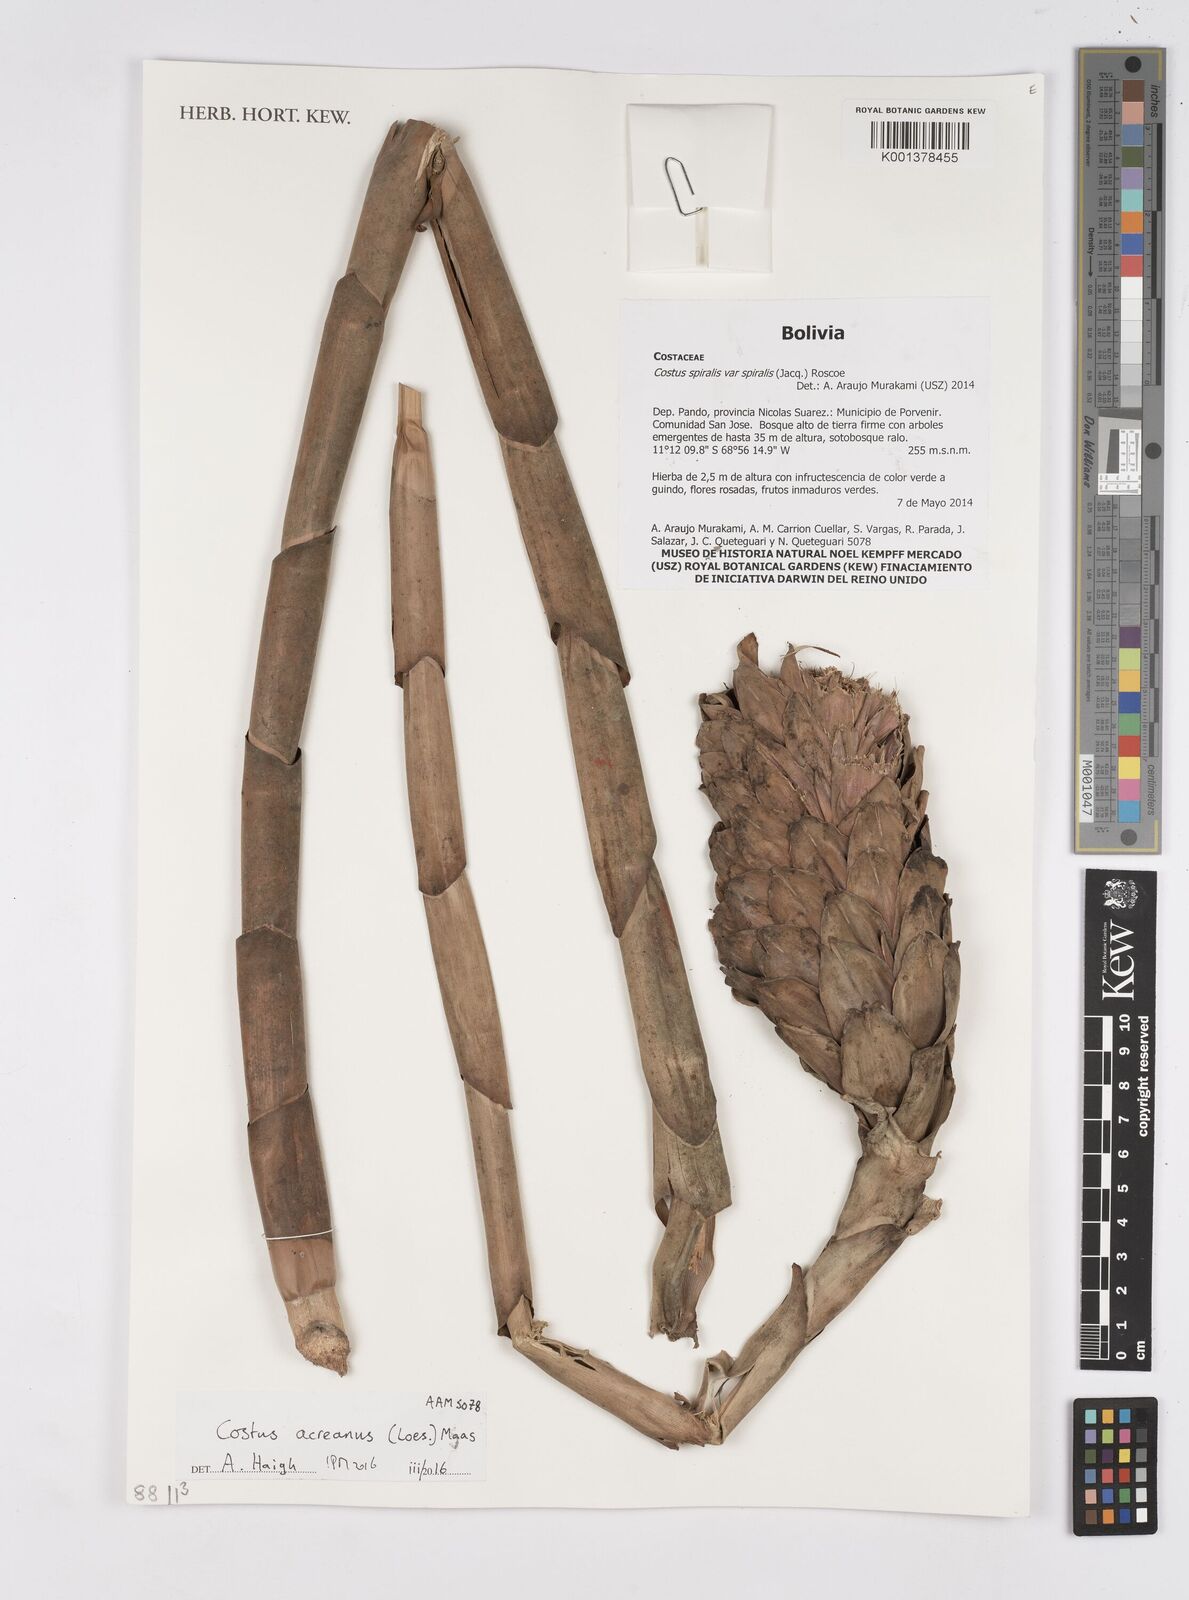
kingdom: Plantae
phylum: Tracheophyta
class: Liliopsida
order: Zingiberales
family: Costaceae
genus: Costus
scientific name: Costus acreanus
